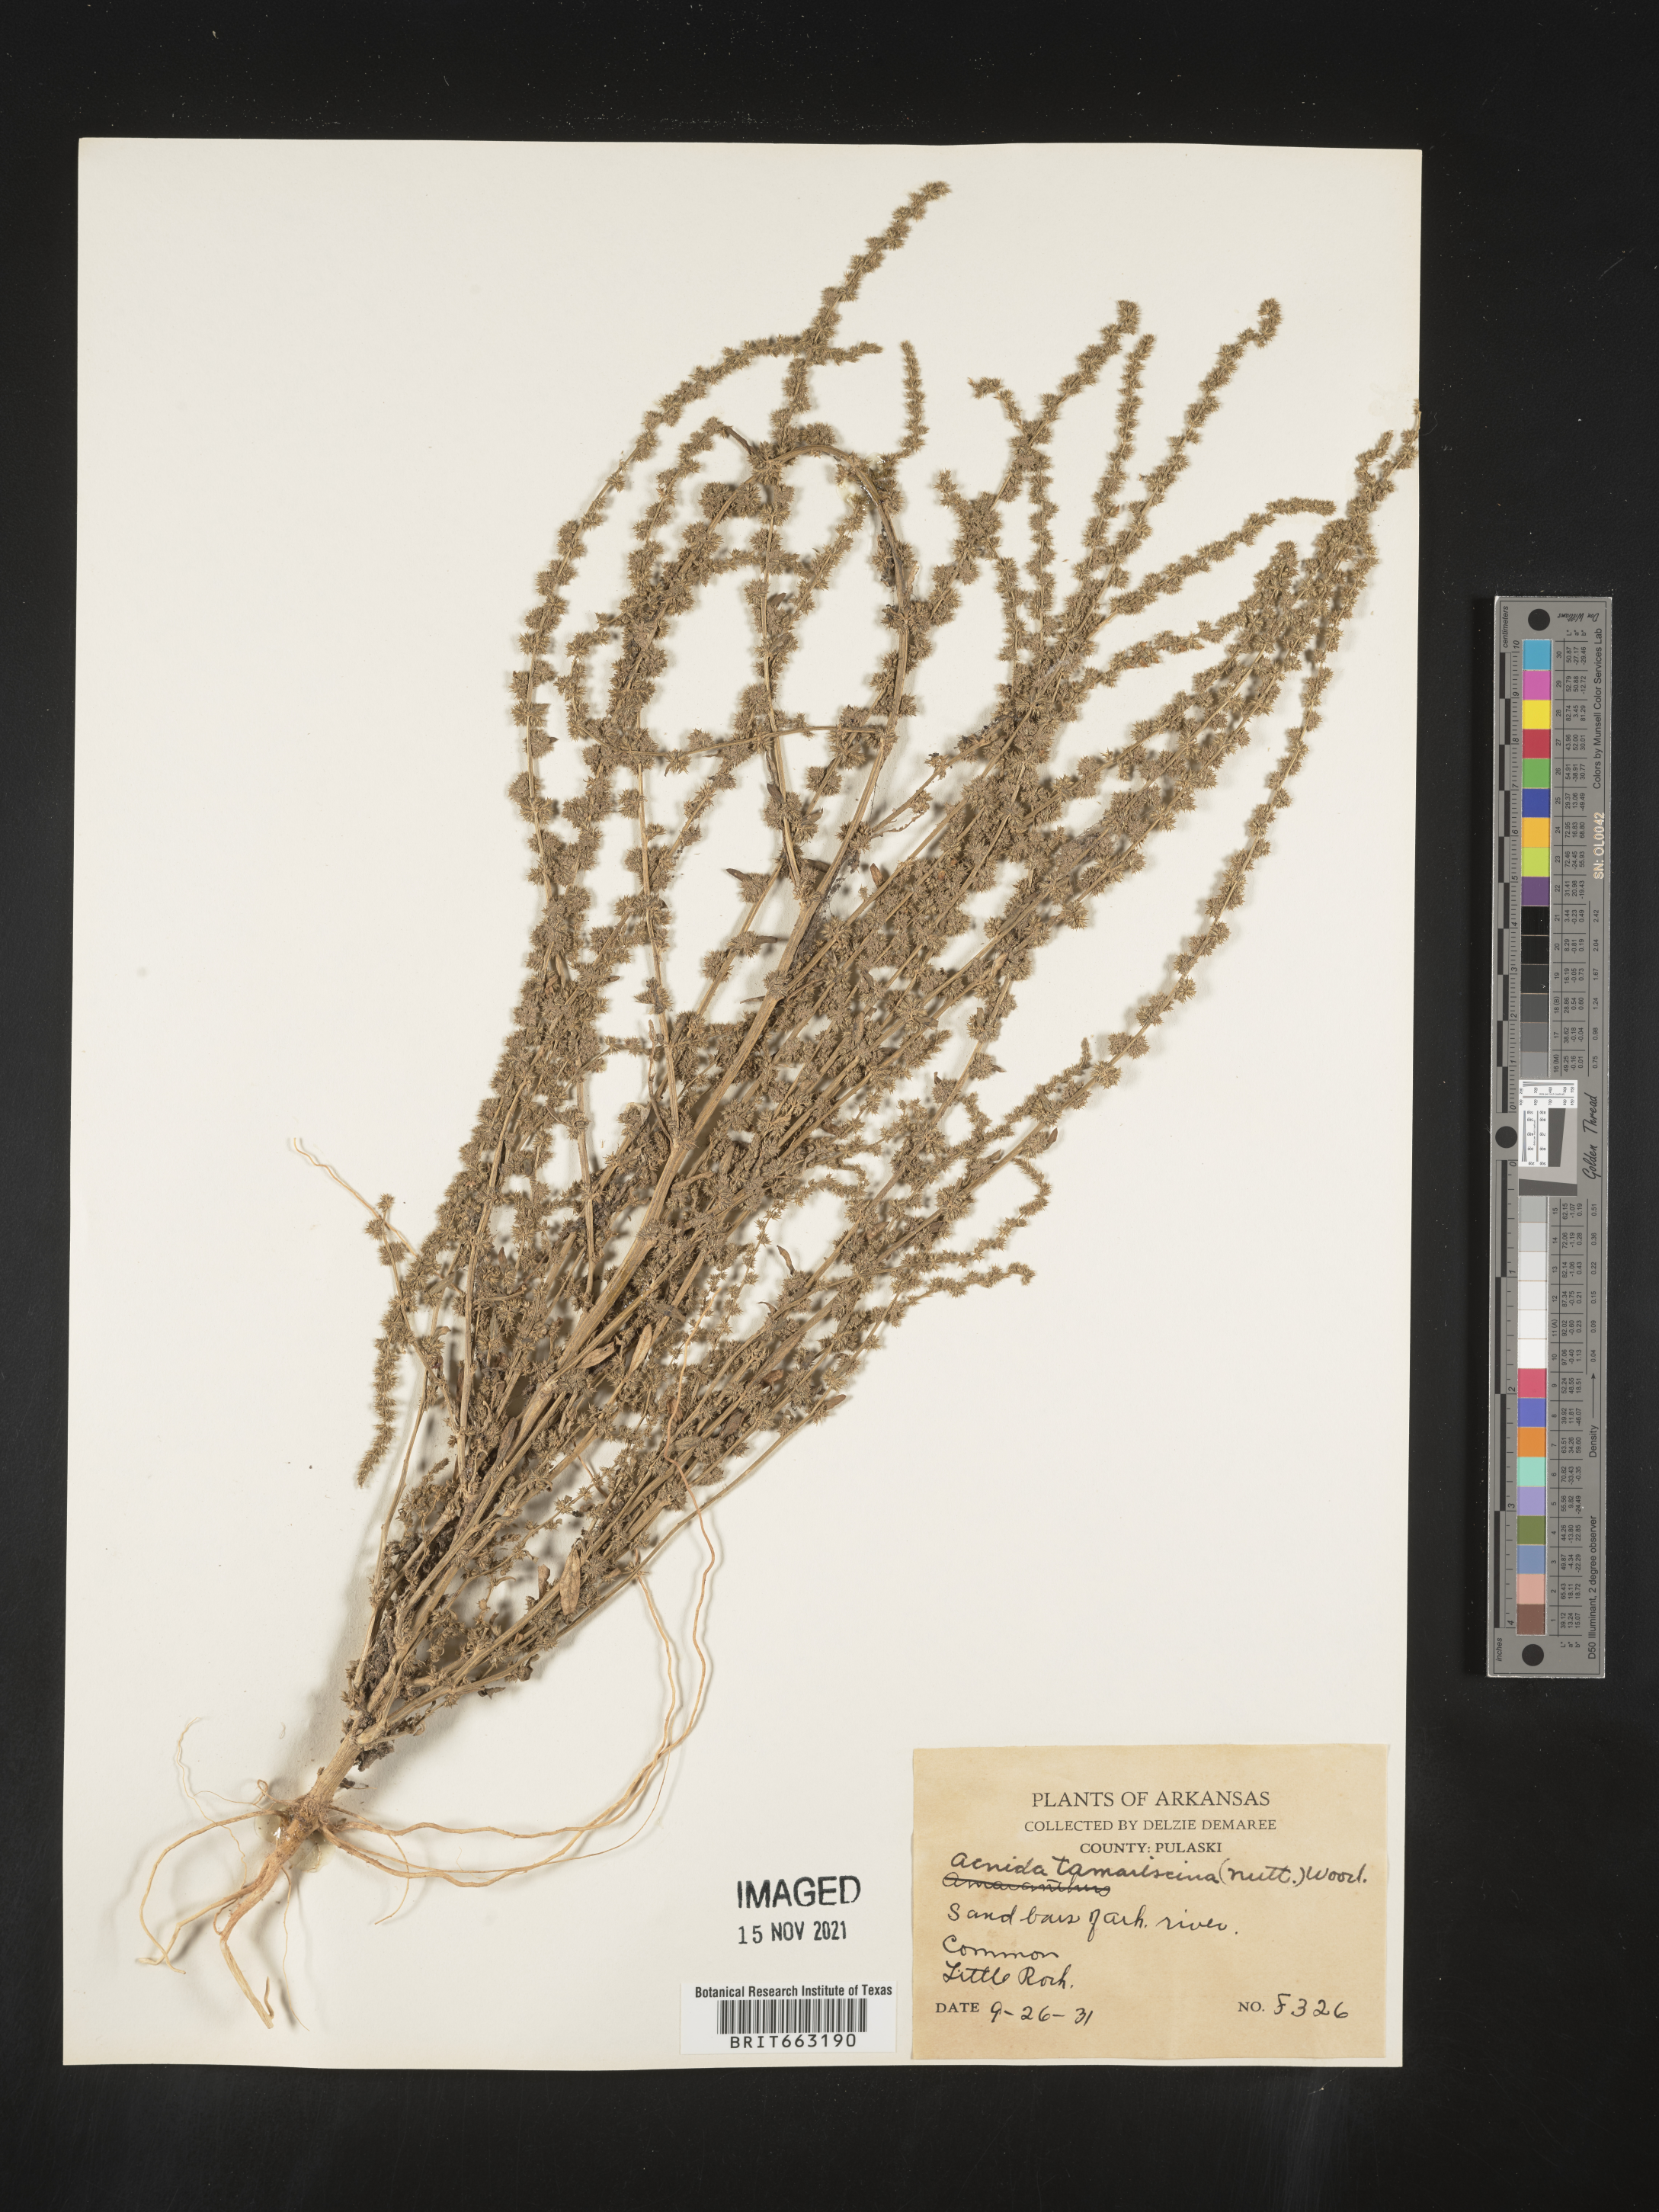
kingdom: Plantae
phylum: Tracheophyta
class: Magnoliopsida
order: Caryophyllales
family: Amaranthaceae
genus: Amaranthus
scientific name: Amaranthus tamariscinus
